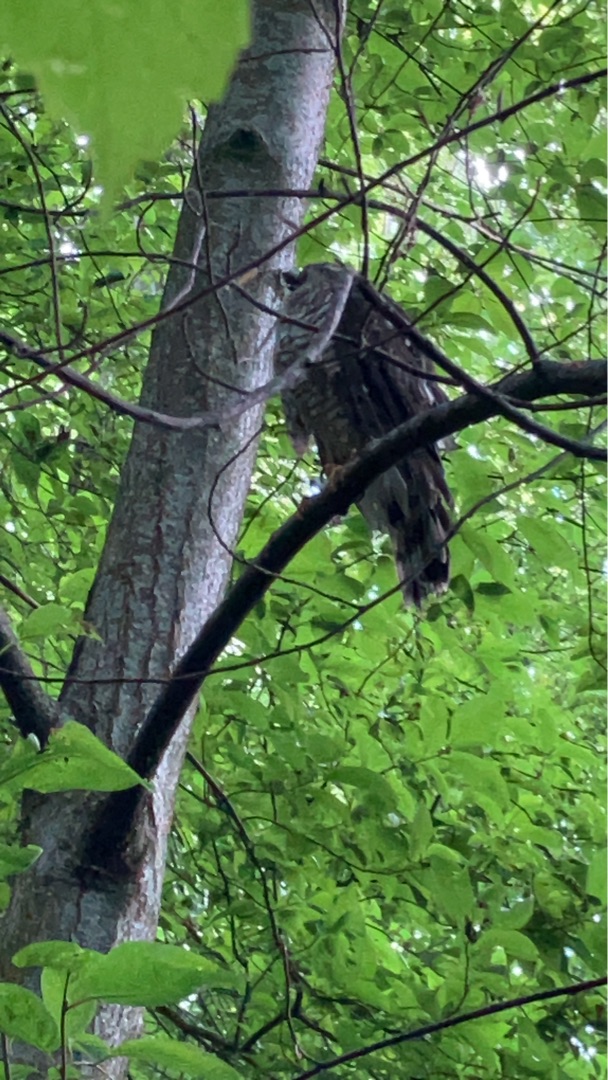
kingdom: Animalia
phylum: Chordata
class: Aves
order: Accipitriformes
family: Accipitridae
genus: Accipiter
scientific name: Accipiter gentilis
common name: Duehøg
